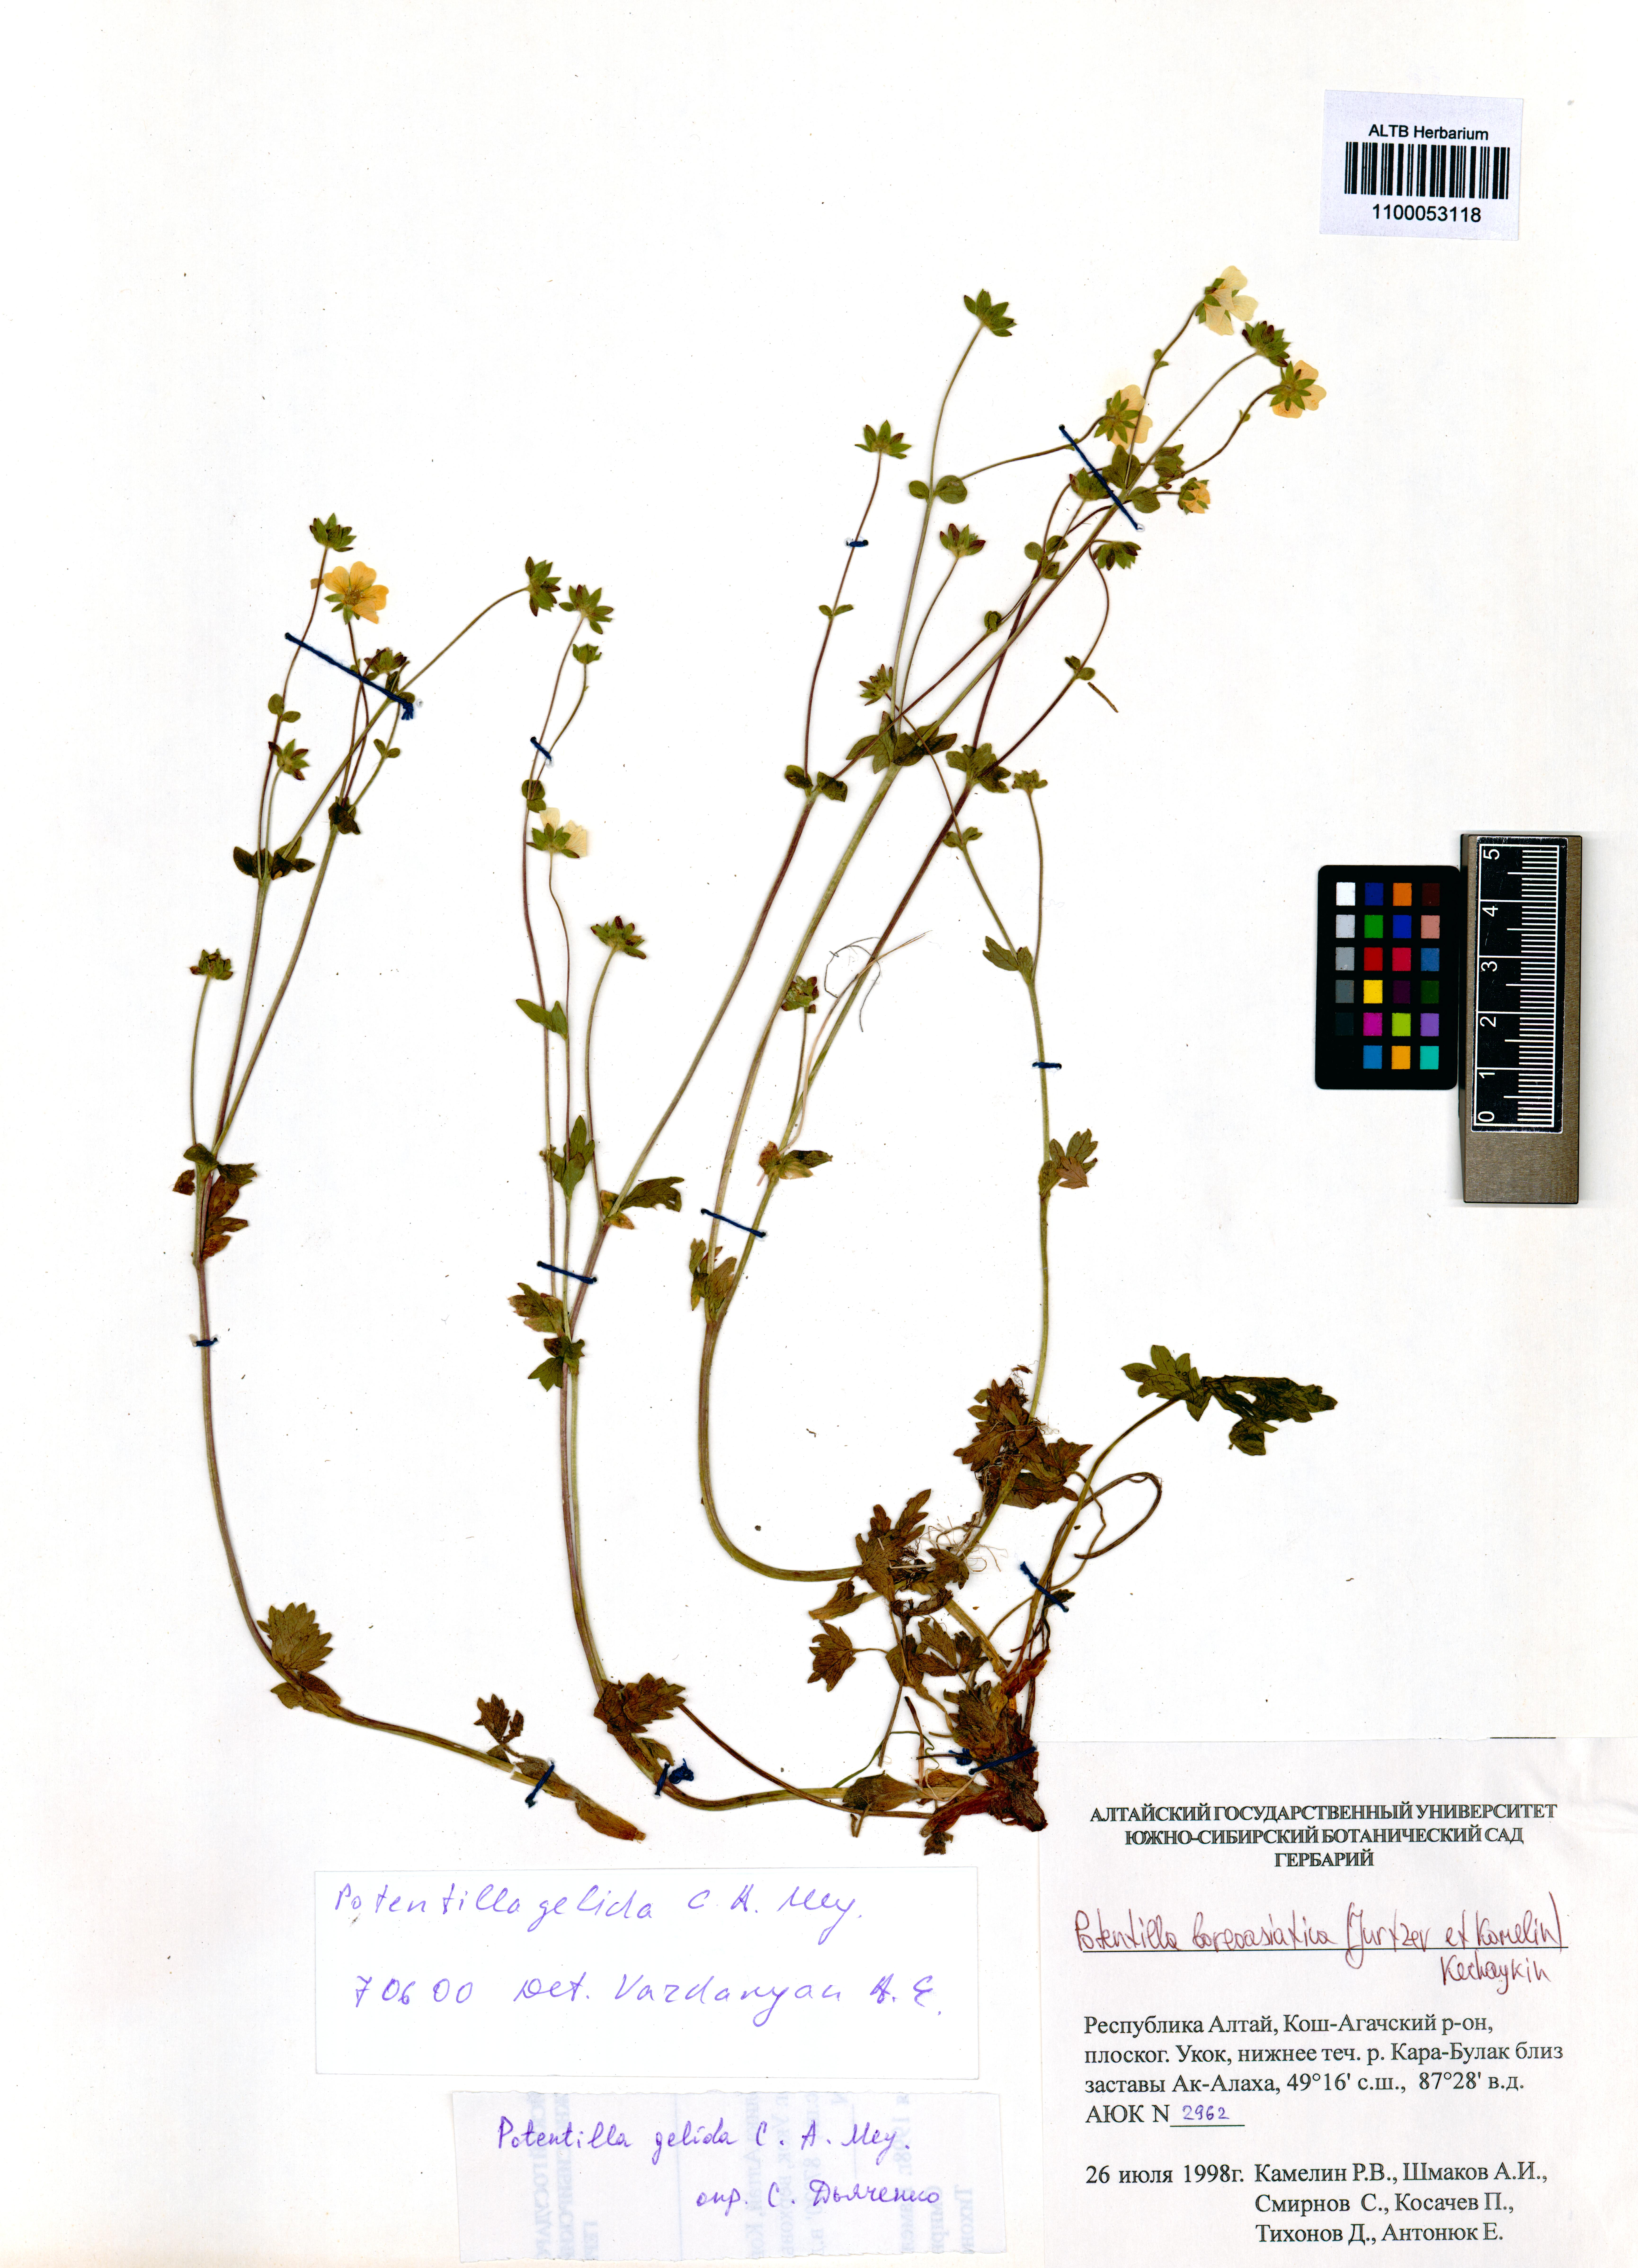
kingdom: Plantae
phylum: Tracheophyta
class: Magnoliopsida
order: Rosales
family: Rosaceae
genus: Potentilla
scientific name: Potentilla
